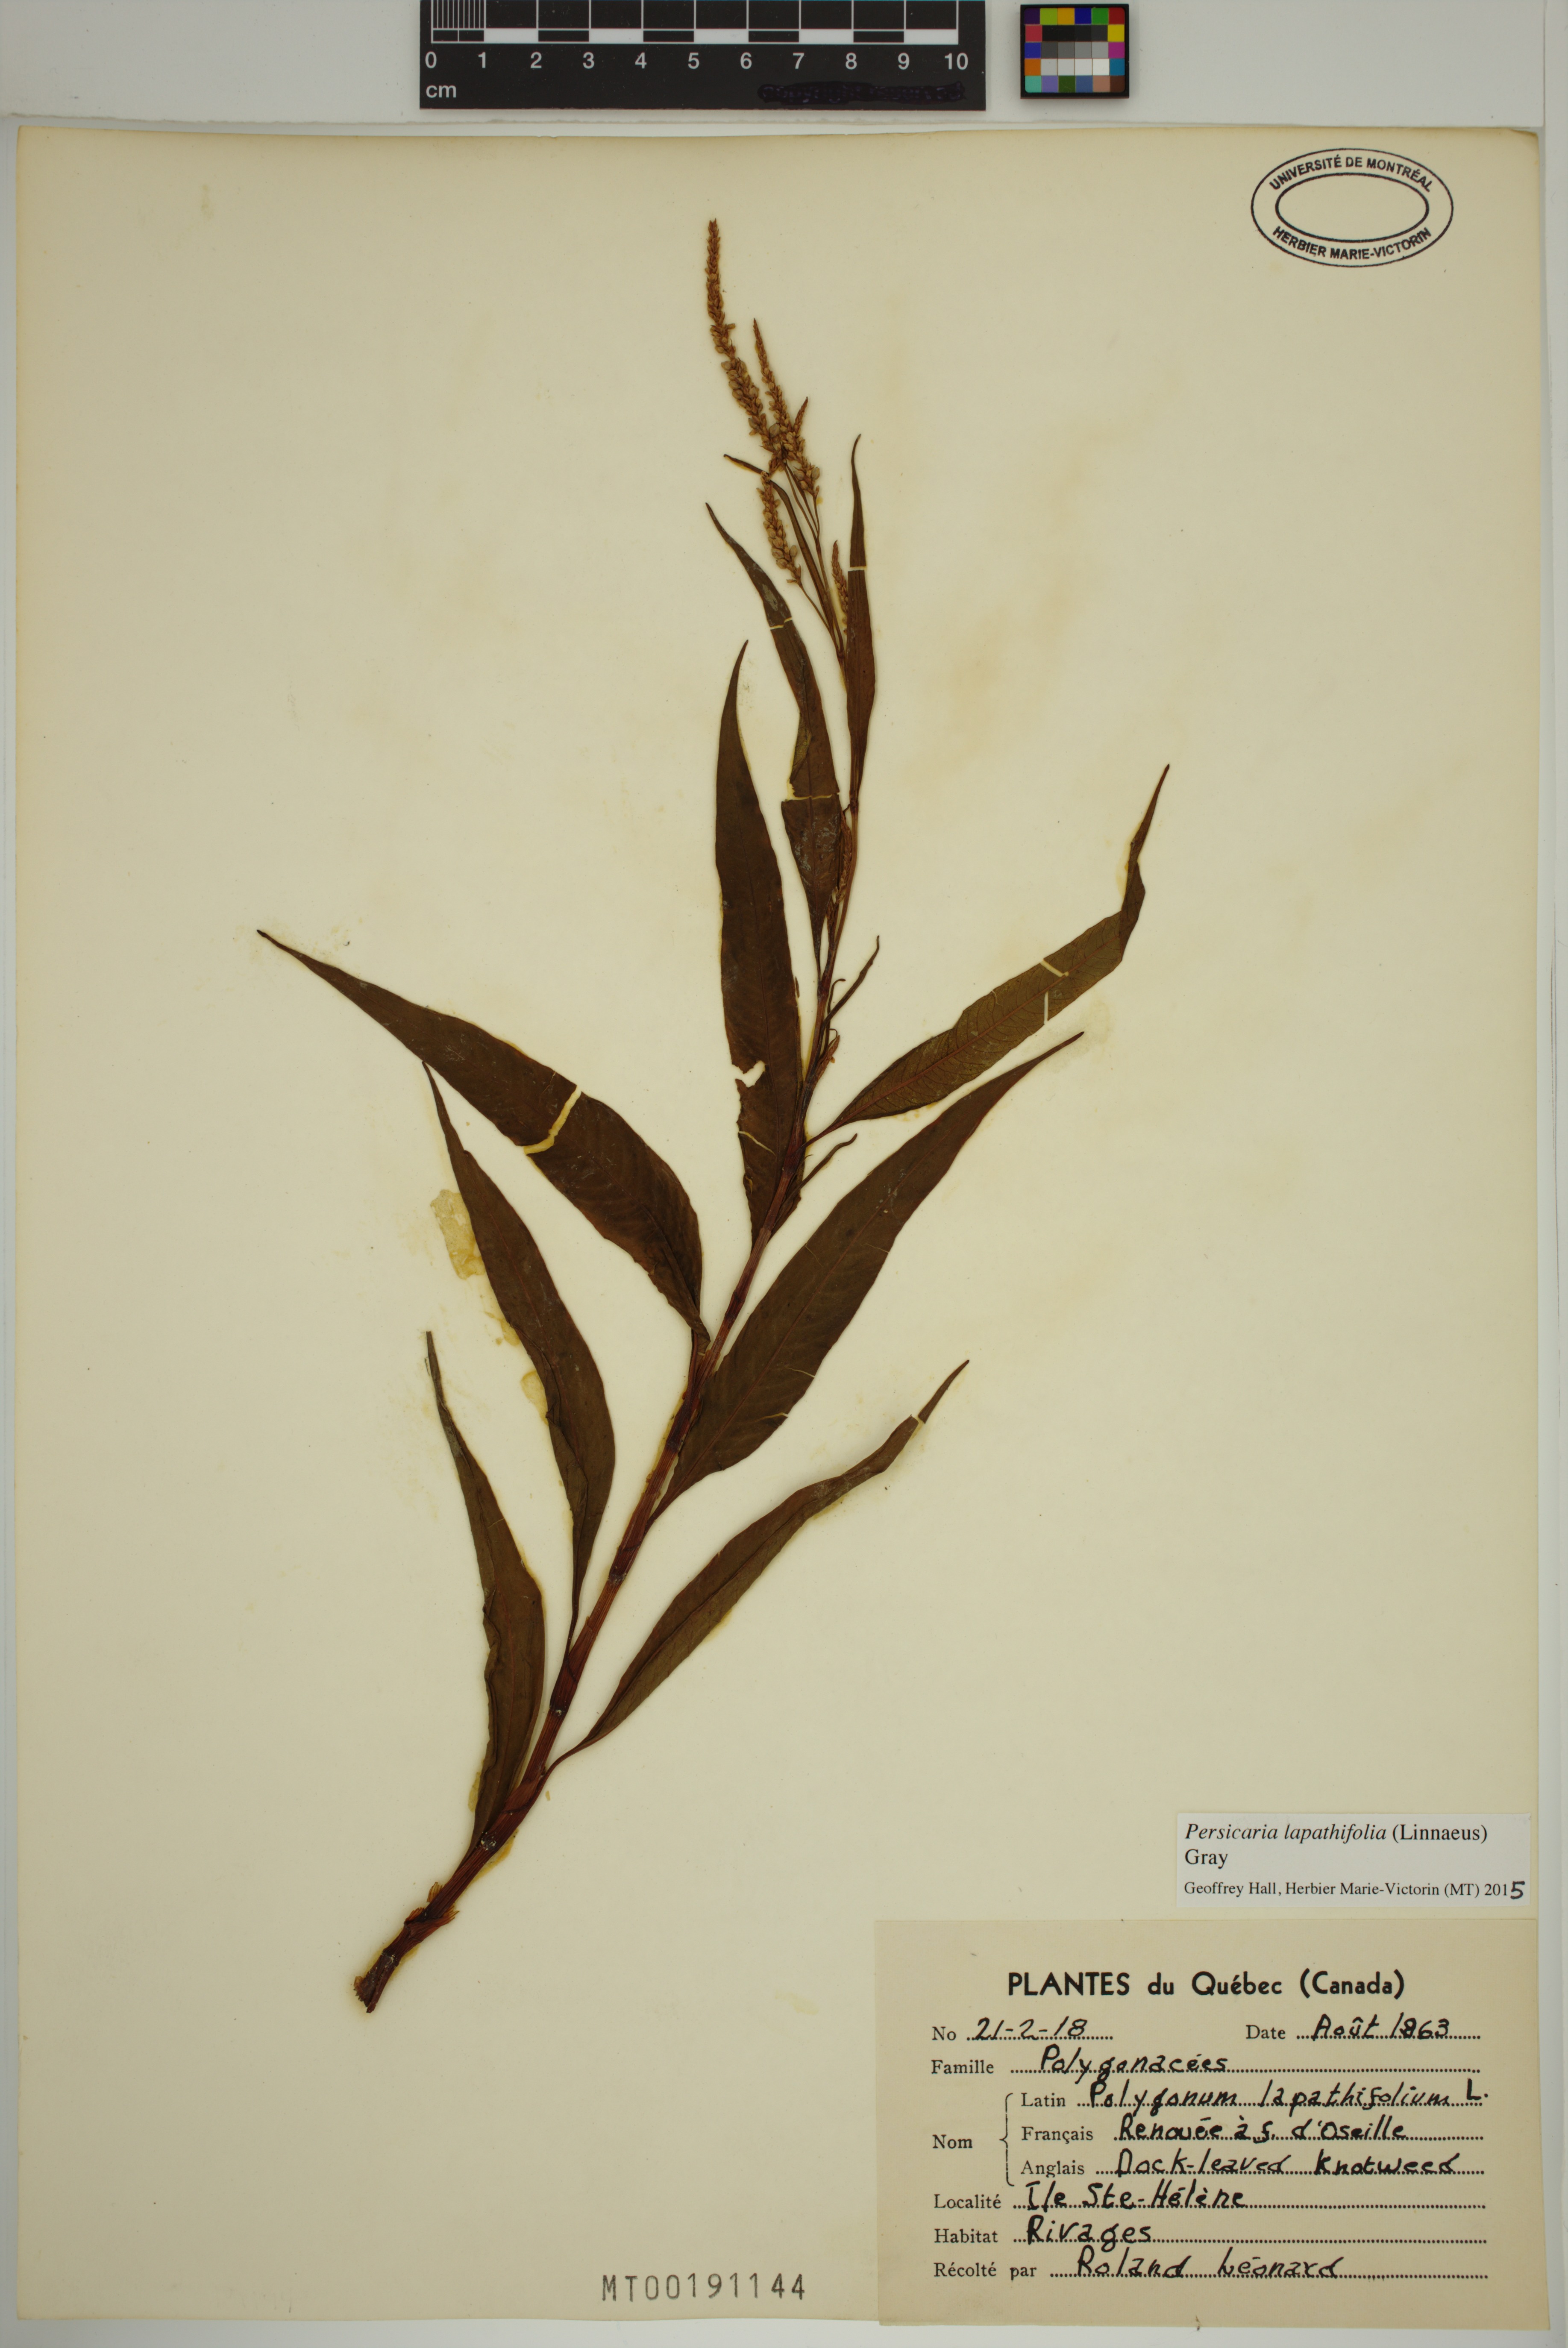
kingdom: Plantae
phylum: Tracheophyta
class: Magnoliopsida
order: Caryophyllales
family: Polygonaceae
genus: Persicaria
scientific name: Persicaria lapathifolia
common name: Curlytop knotweed
